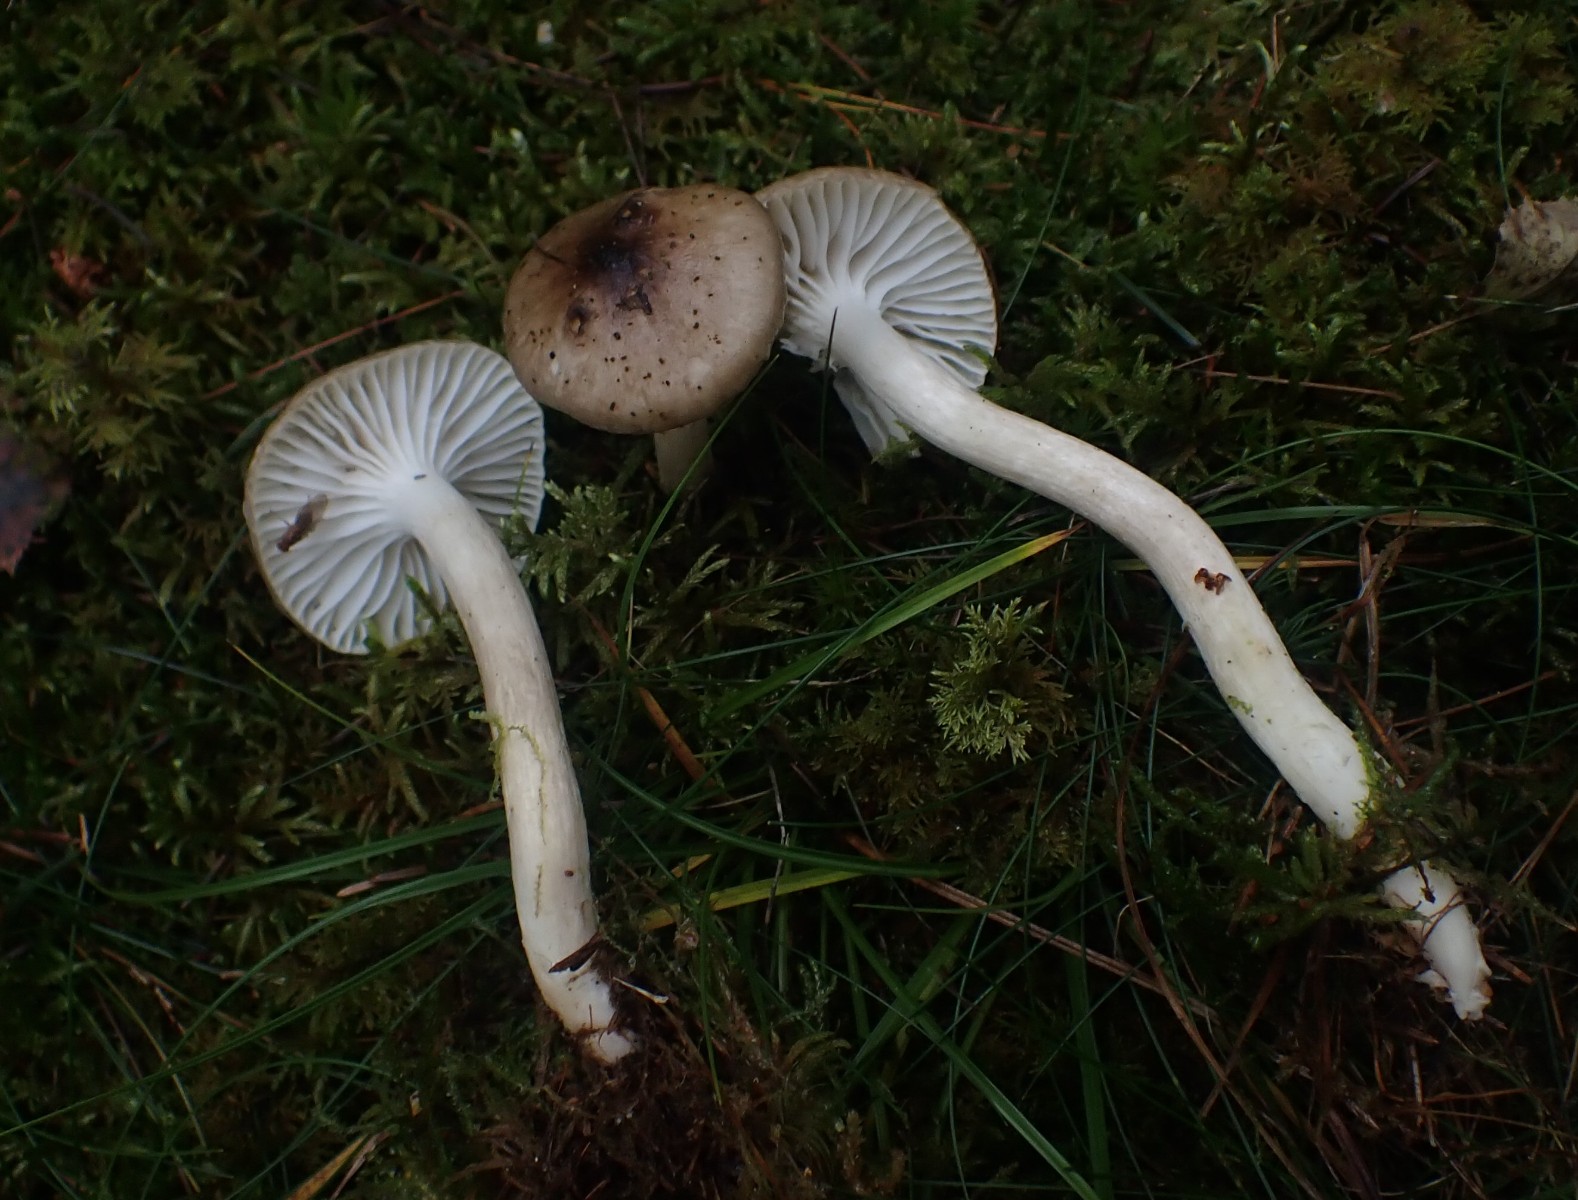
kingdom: Fungi
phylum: Basidiomycota
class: Agaricomycetes
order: Agaricales
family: Hygrophoraceae
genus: Hygrophorus
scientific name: Hygrophorus olivaceoalbus
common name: hvidbrun sneglehat
